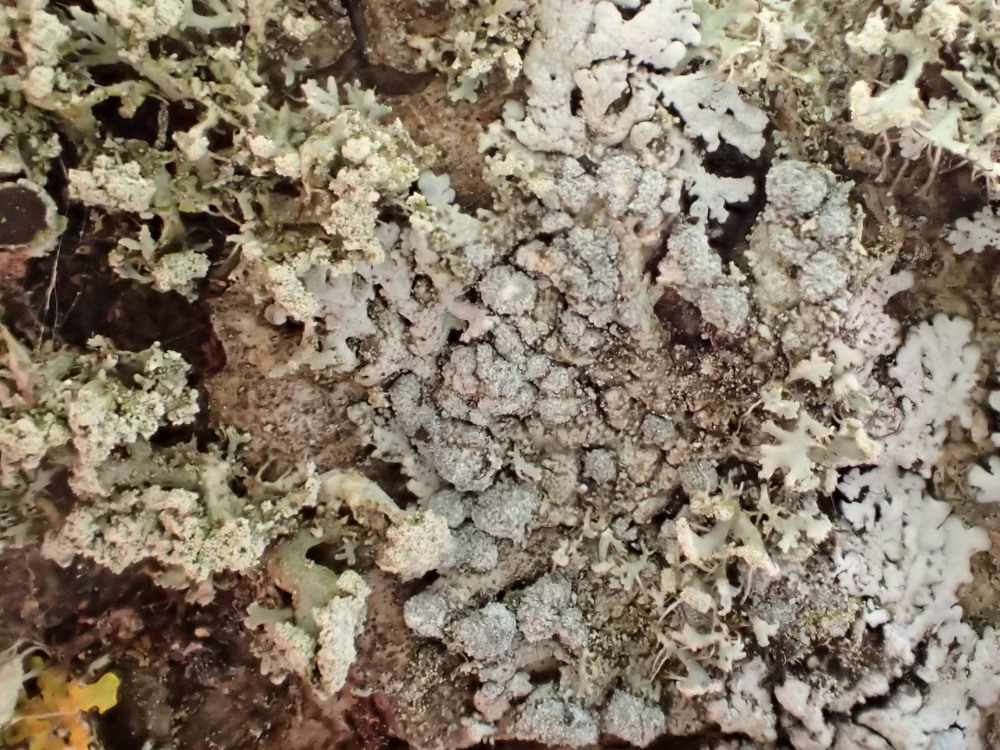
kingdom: Fungi
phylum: Ascomycota
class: Lecanoromycetes
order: Caliciales
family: Physciaceae
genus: Physcia
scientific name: Physcia caesia
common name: blågrå rosetlav
